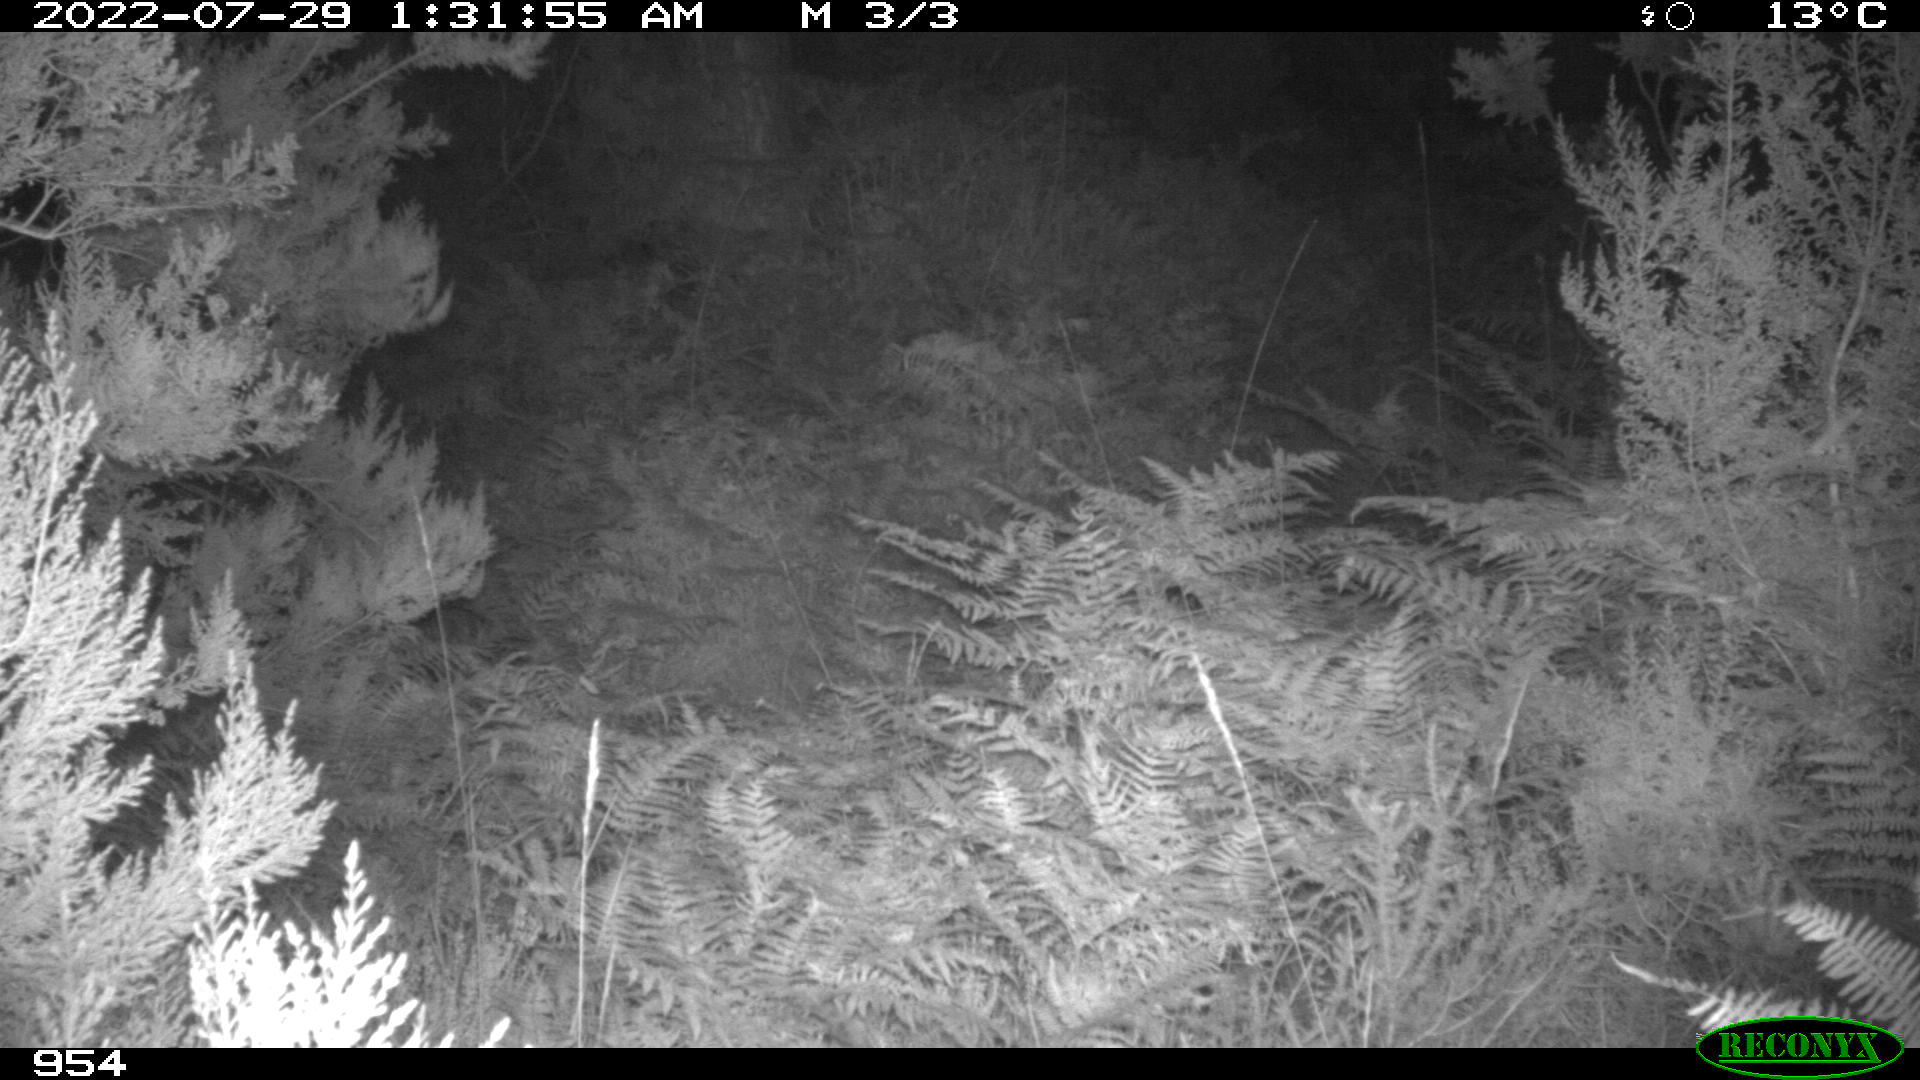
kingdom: Animalia
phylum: Chordata
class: Mammalia
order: Artiodactyla
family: Cervidae
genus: Capreolus
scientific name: Capreolus capreolus
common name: Western roe deer
